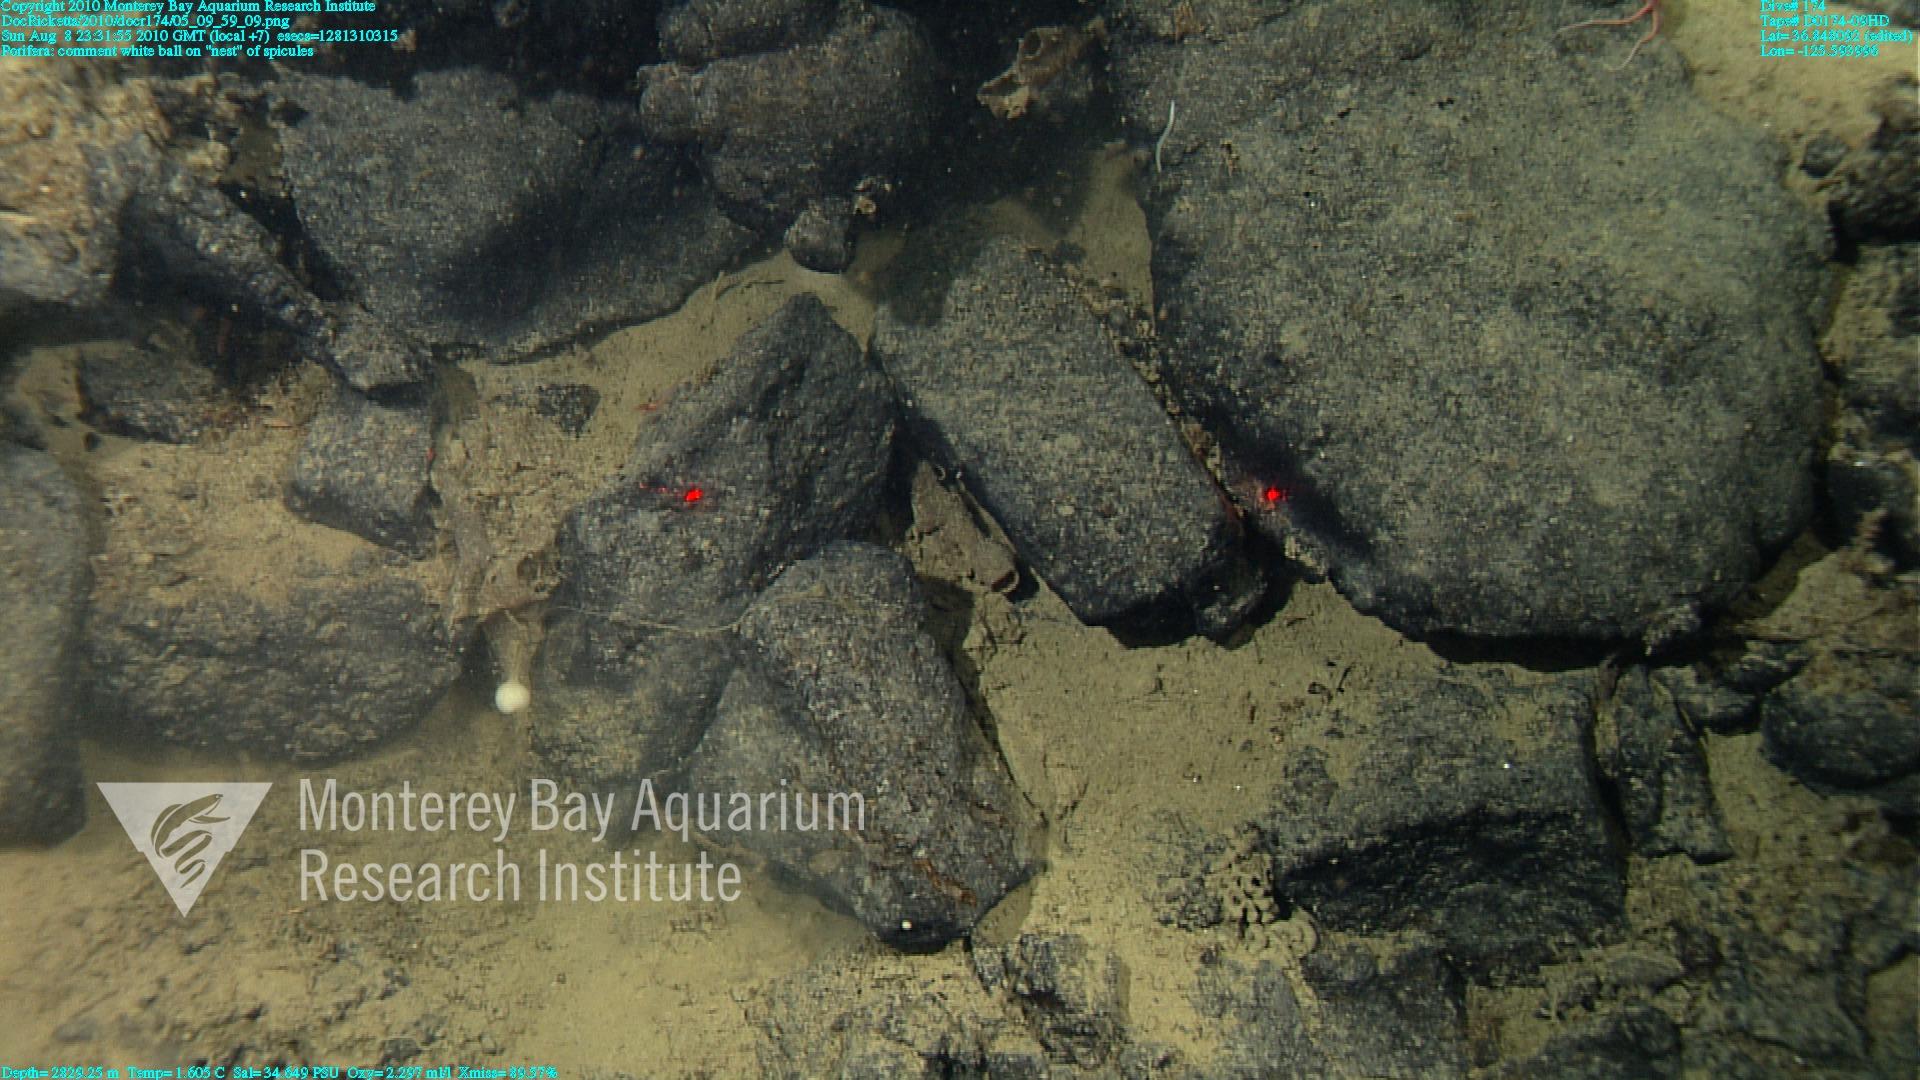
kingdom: Animalia
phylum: Porifera
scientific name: Porifera
